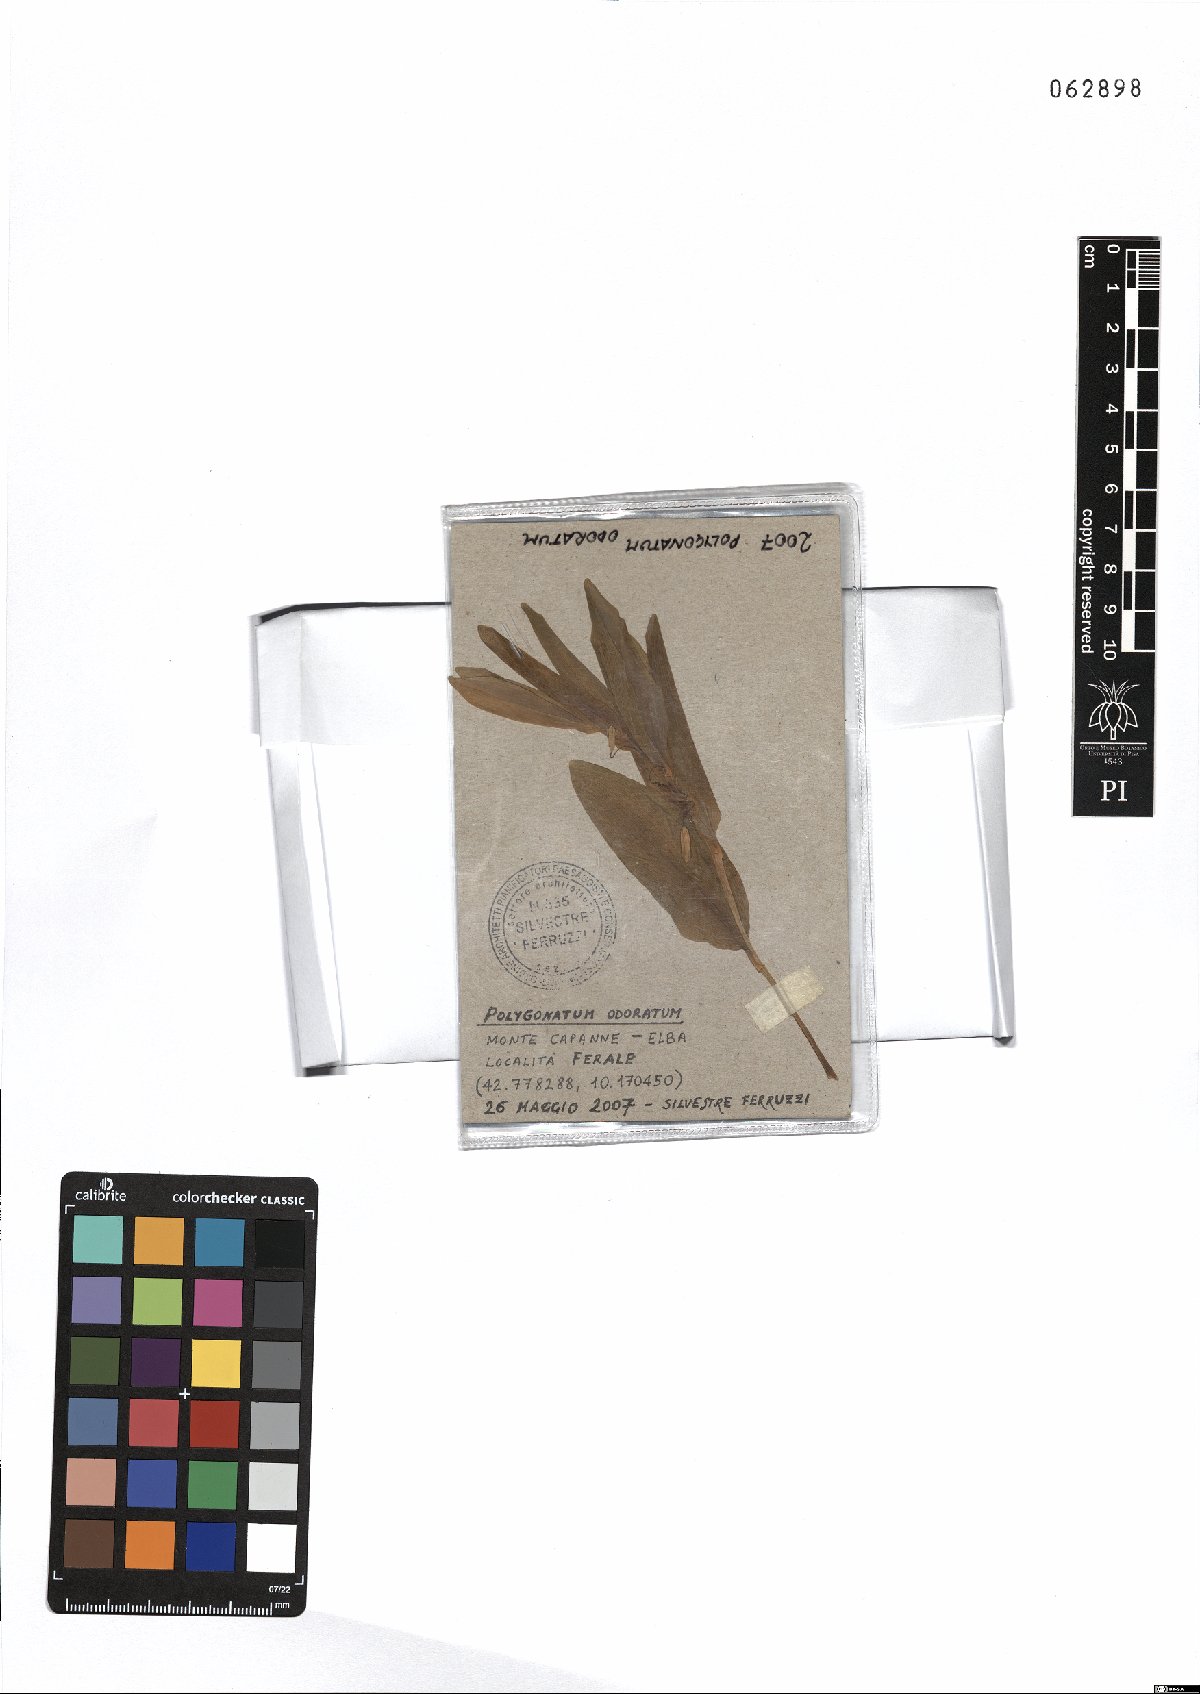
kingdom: Plantae
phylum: Tracheophyta
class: Liliopsida
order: Asparagales
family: Asparagaceae
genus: Polygonatum
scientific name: Polygonatum odoratum
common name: Angular solomon's-seal
